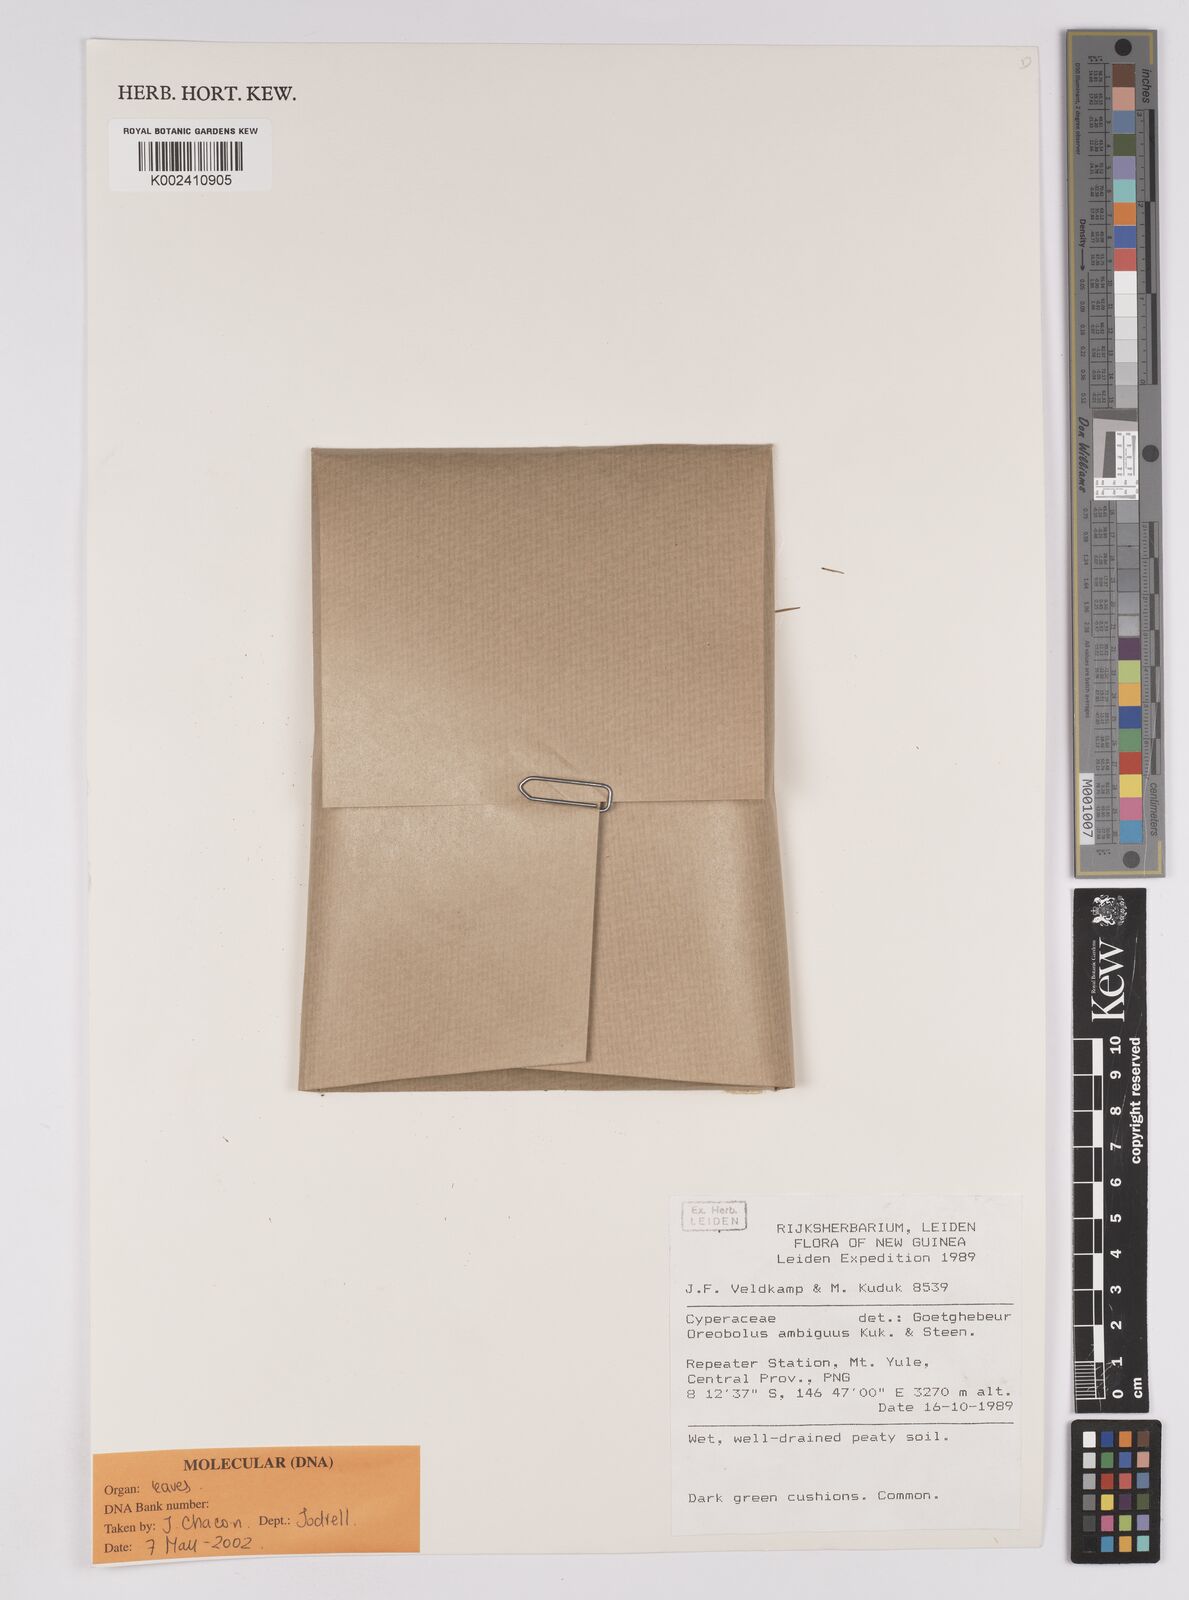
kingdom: Plantae
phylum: Tracheophyta
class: Liliopsida
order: Poales
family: Cyperaceae
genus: Oreobolus
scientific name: Oreobolus ambiguus
